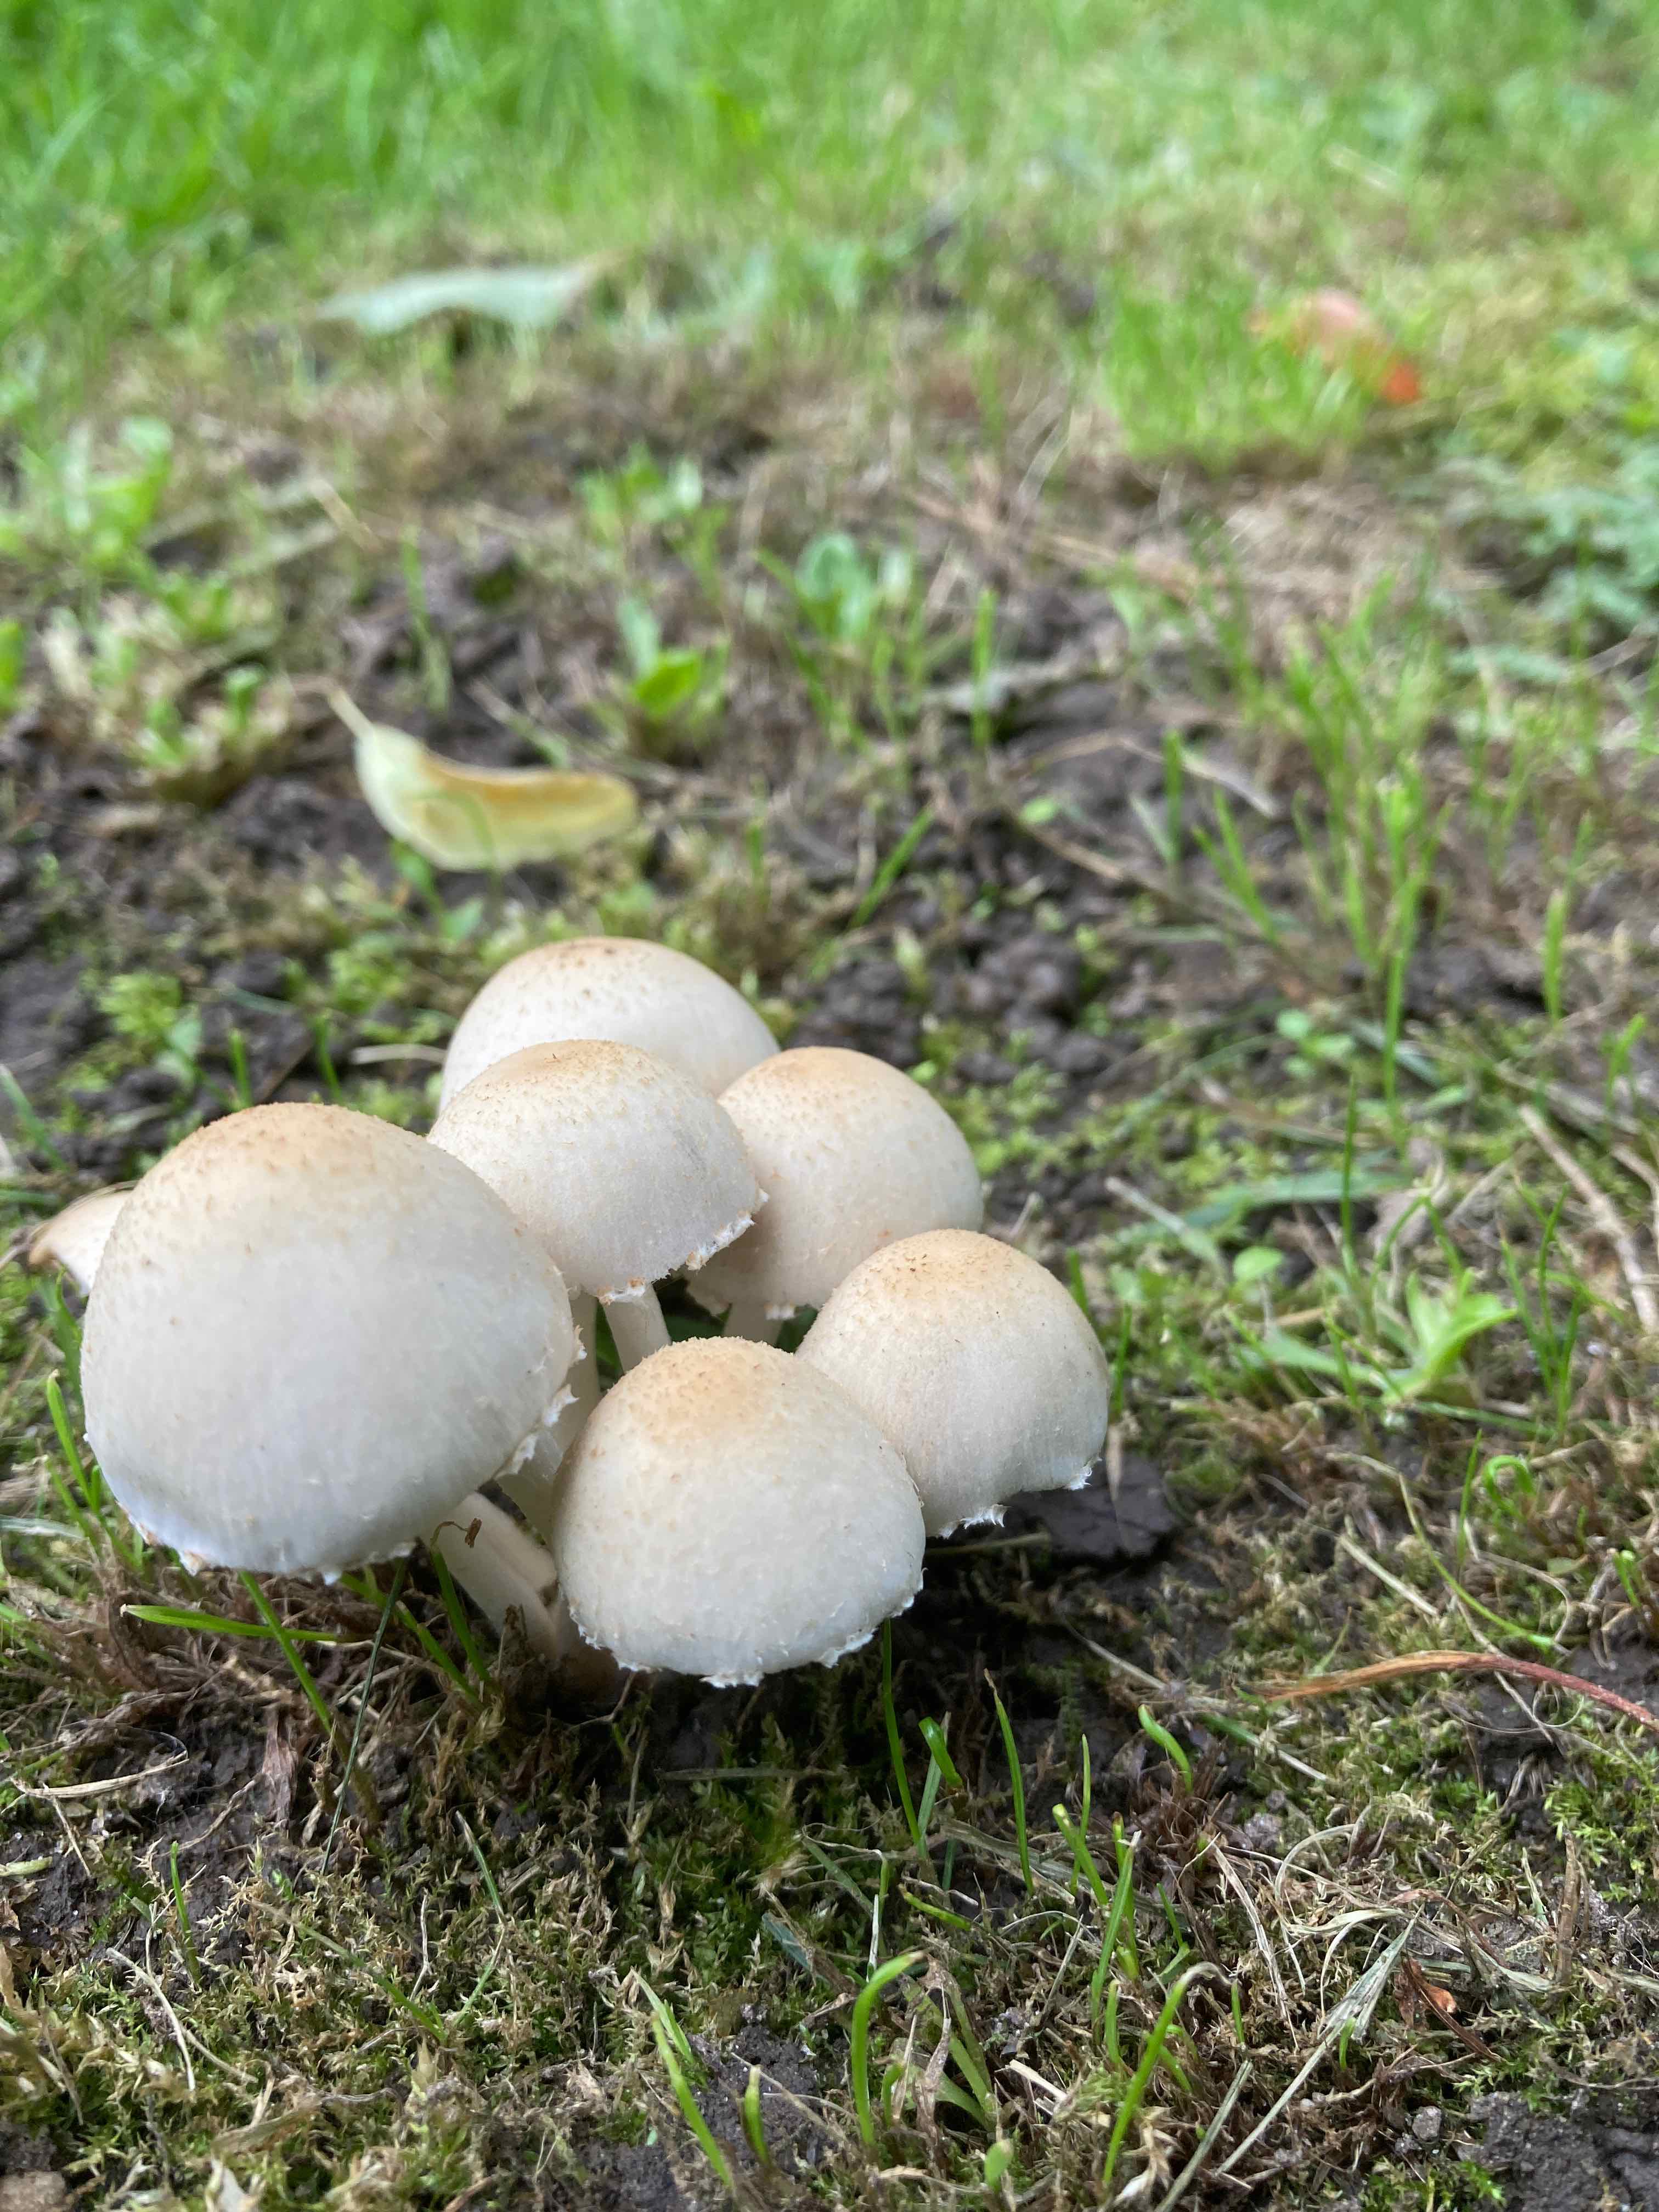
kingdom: Fungi
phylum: Basidiomycota
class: Agaricomycetes
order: Agaricales
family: Psathyrellaceae
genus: Candolleomyces
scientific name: Candolleomyces candolleanus
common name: Candolles mørkhat
